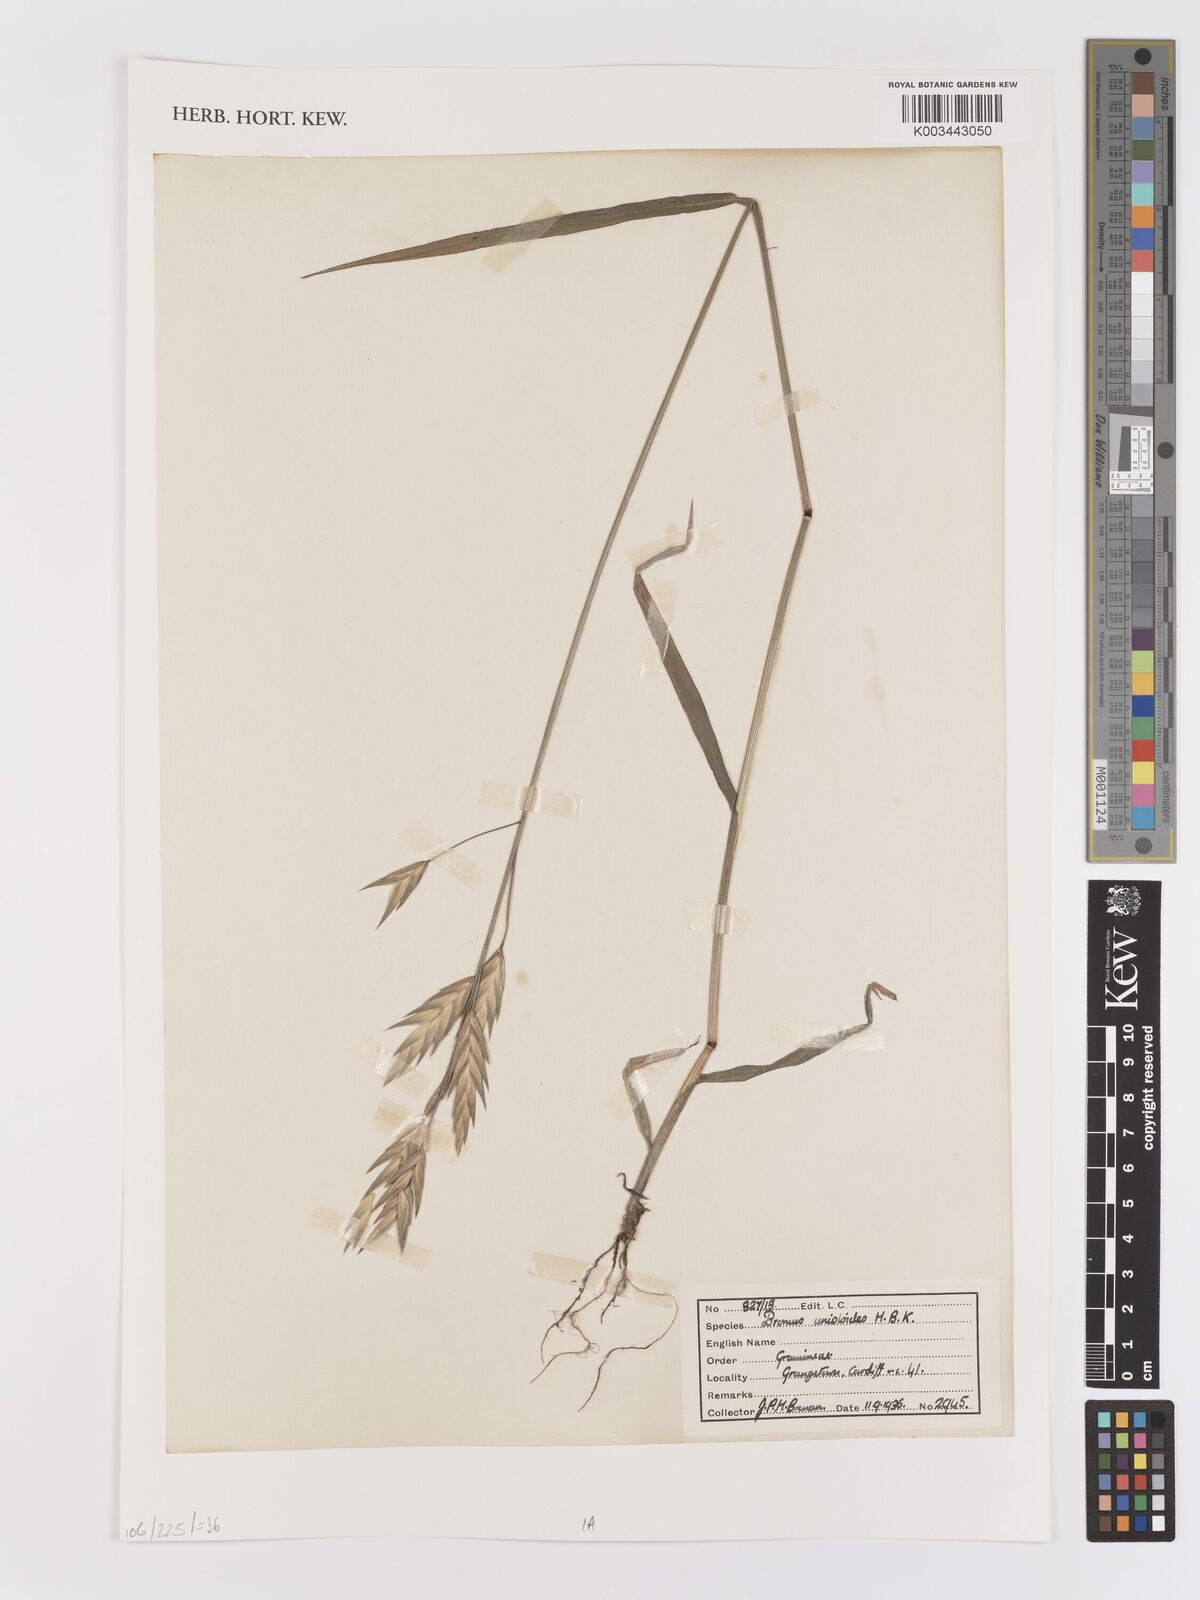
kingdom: Plantae
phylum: Tracheophyta
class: Liliopsida
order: Poales
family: Poaceae
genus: Bromus
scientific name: Bromus catharticus
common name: Rescuegrass
